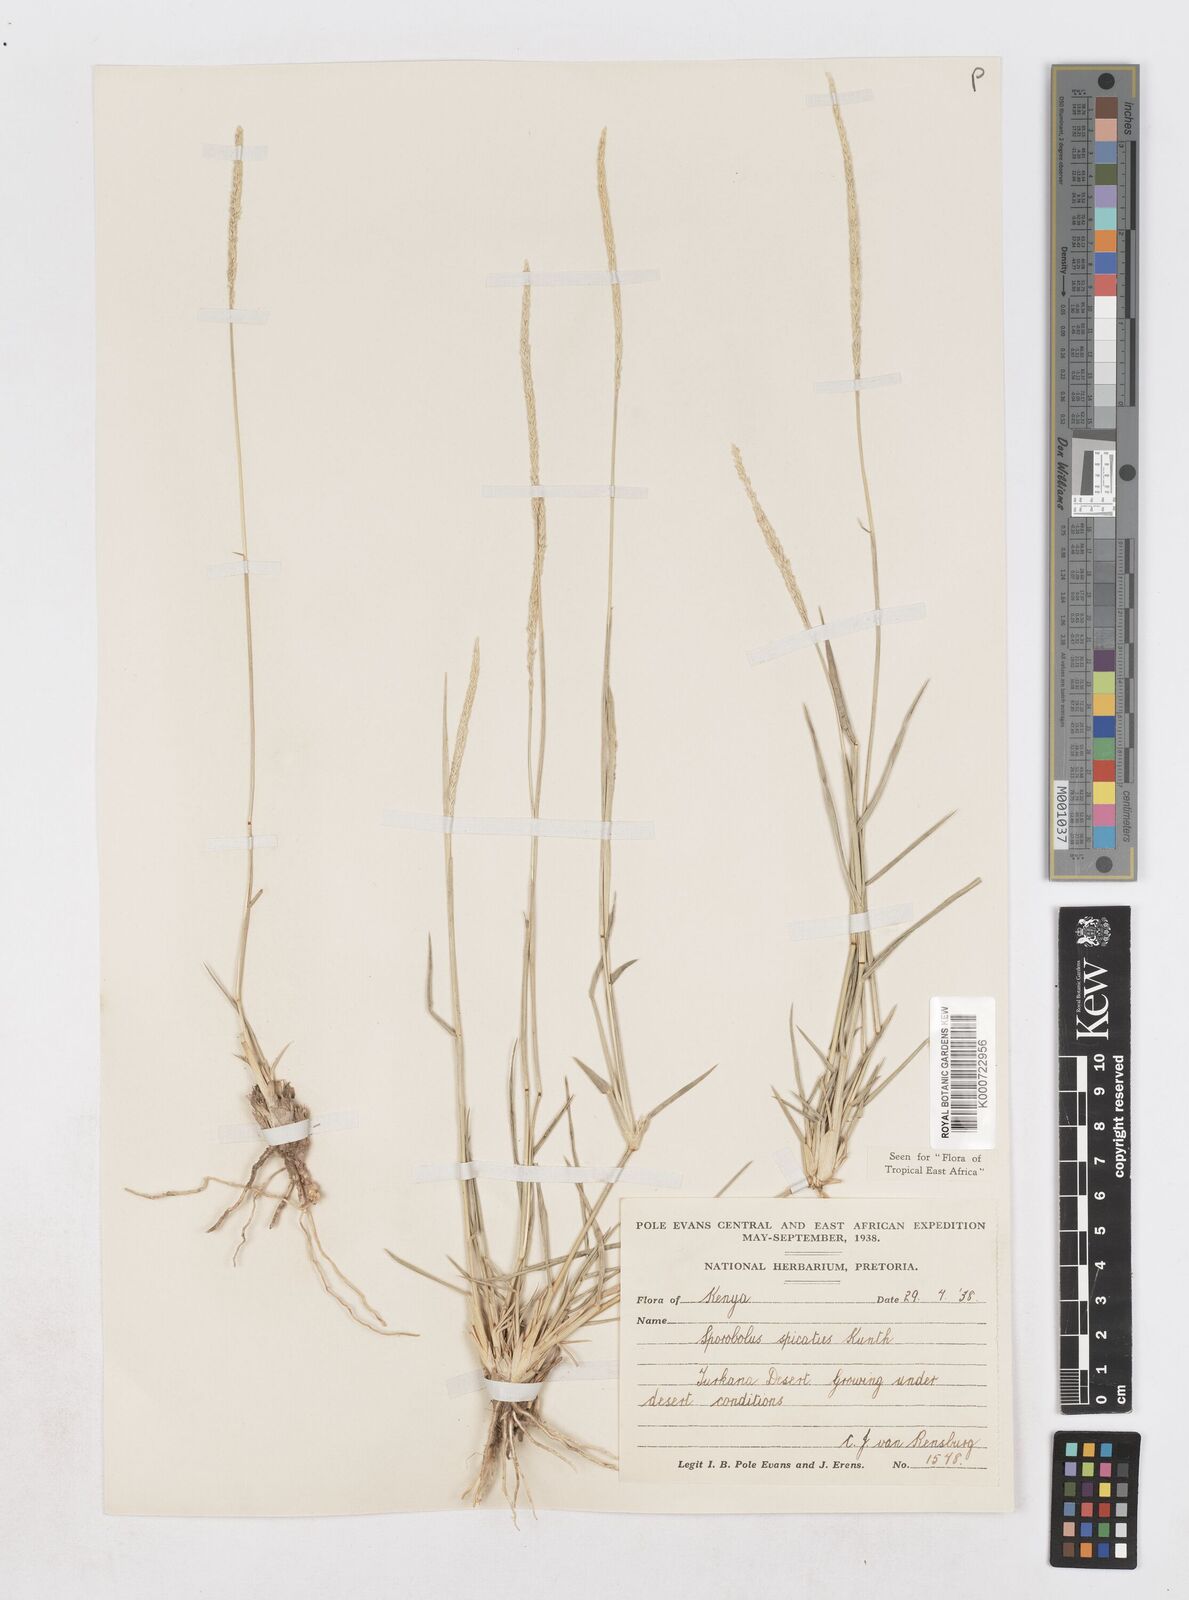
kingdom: Plantae
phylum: Tracheophyta
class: Liliopsida
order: Poales
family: Poaceae
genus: Sporobolus
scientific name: Sporobolus spicatus
